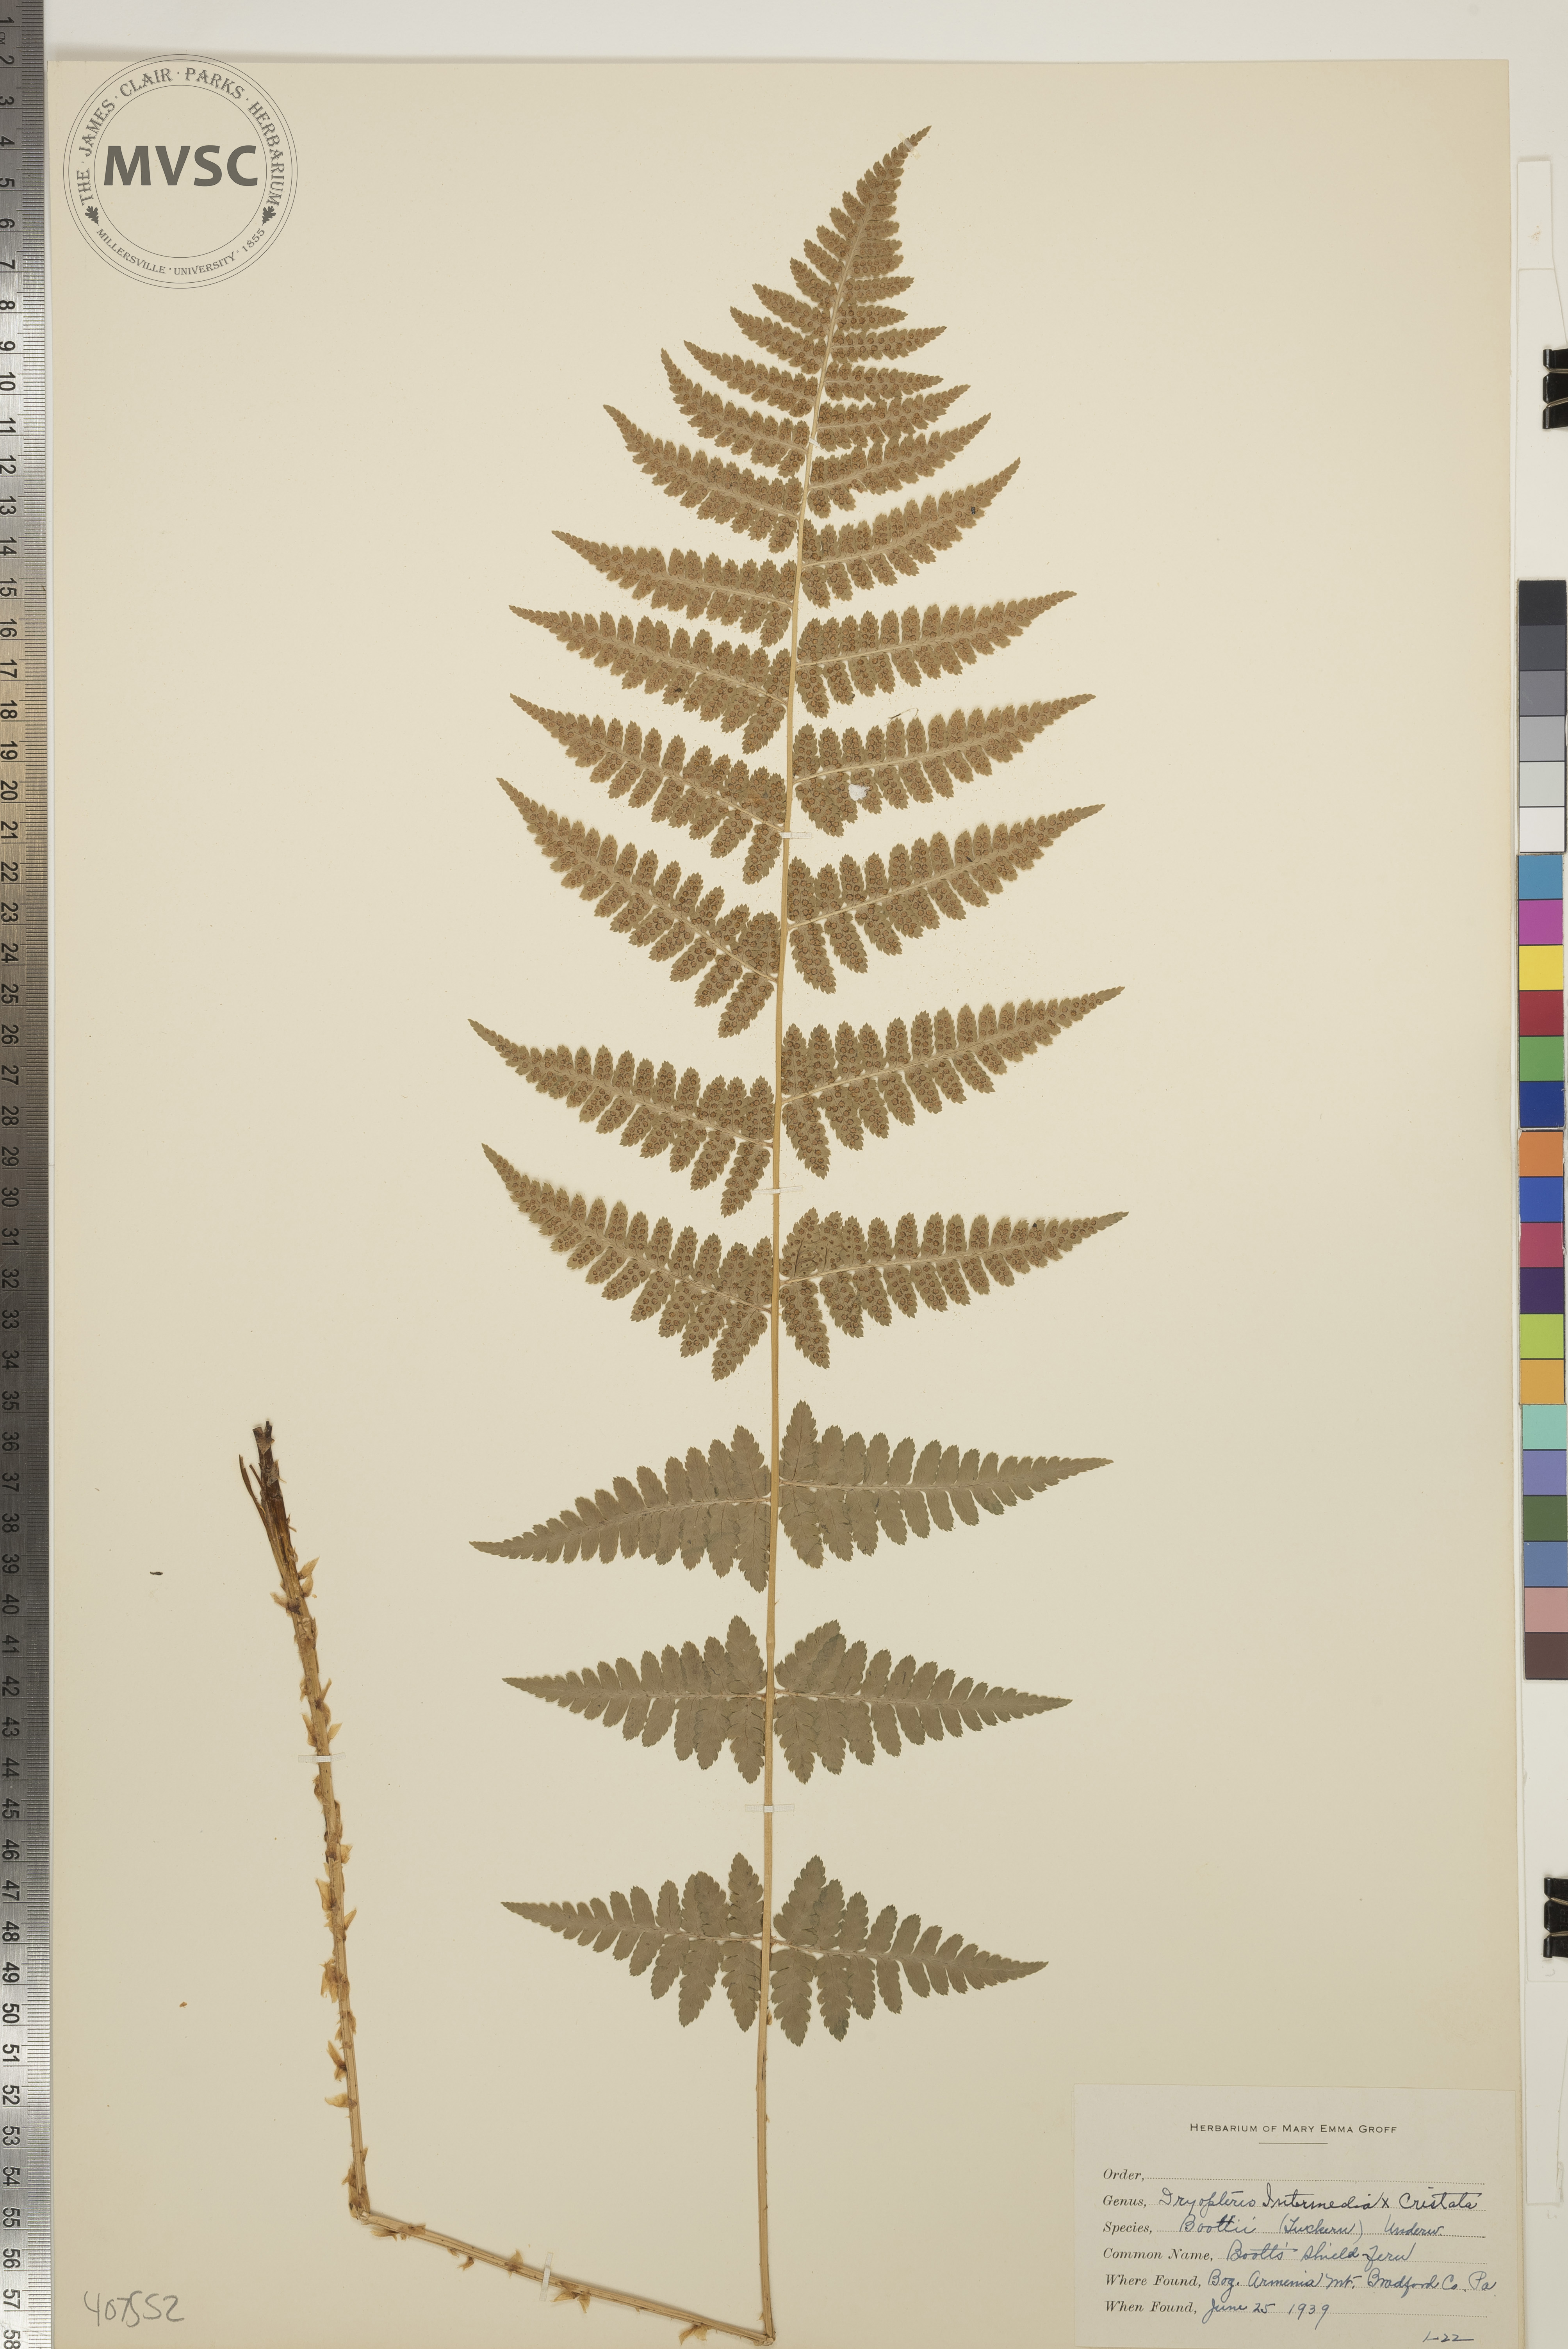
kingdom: Plantae
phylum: Tracheophyta
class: Polypodiopsida
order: Polypodiales
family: Dryopteridaceae
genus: Dryopteris
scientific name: Dryopteris
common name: Boott's Shield Fern
